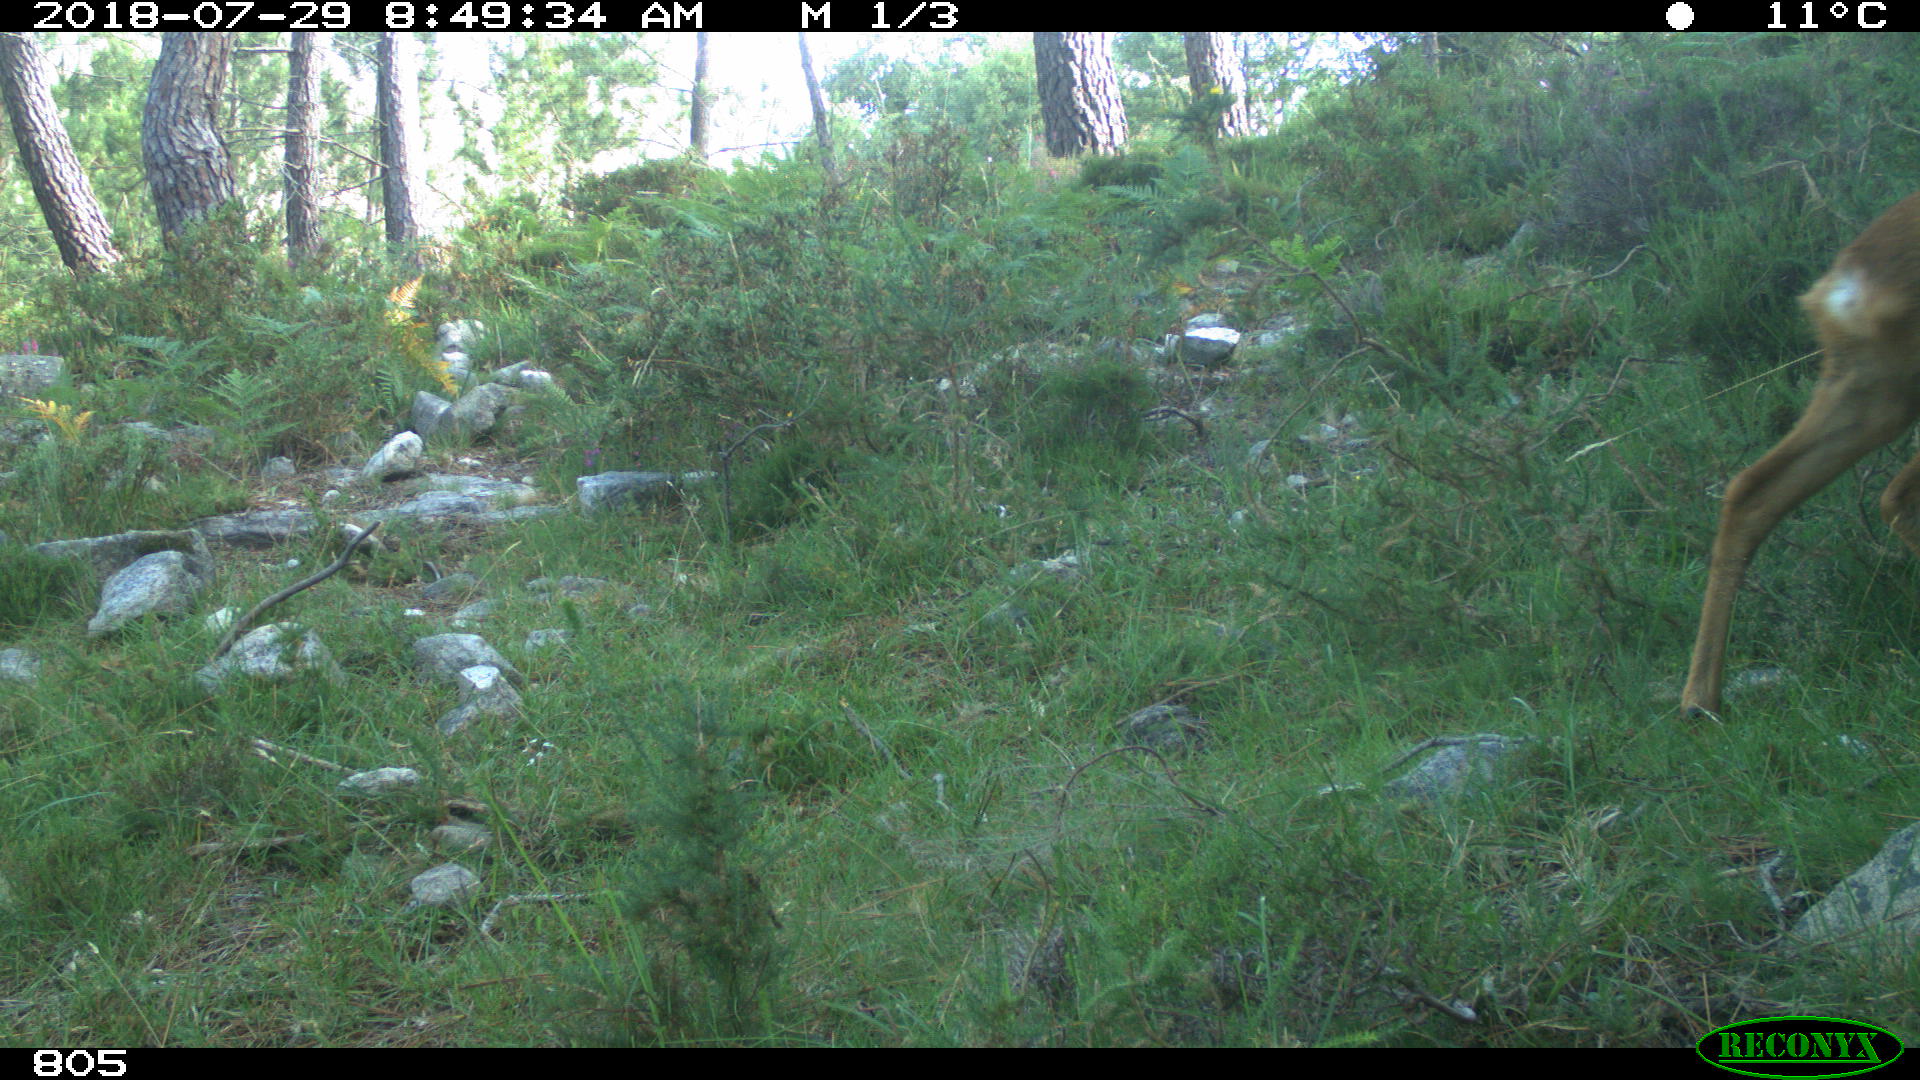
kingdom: Animalia
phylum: Chordata
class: Mammalia
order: Artiodactyla
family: Cervidae
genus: Capreolus
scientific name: Capreolus capreolus
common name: Western roe deer
